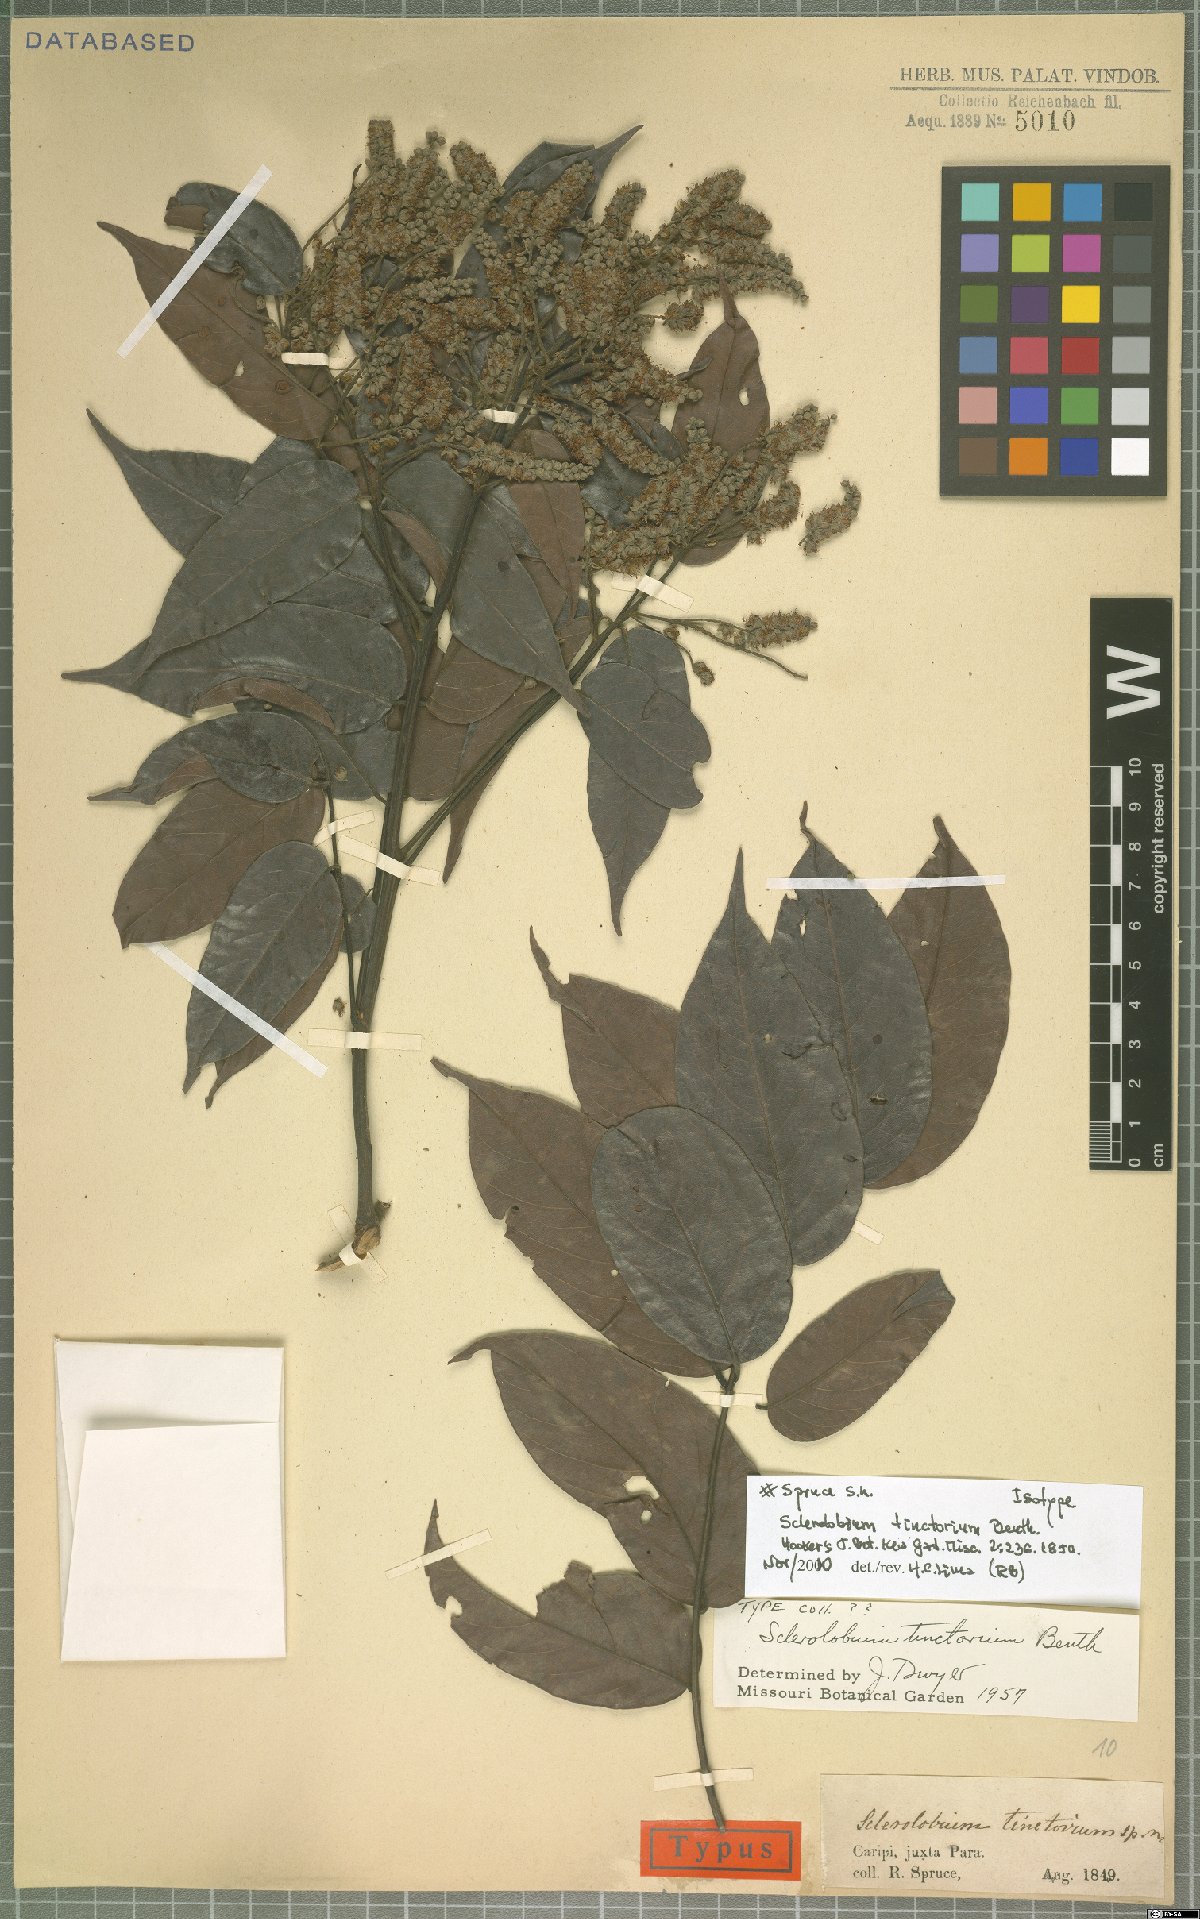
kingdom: Plantae
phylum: Tracheophyta
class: Magnoliopsida
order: Fabales
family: Fabaceae
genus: Tachigali
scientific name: Tachigali tinctoria
